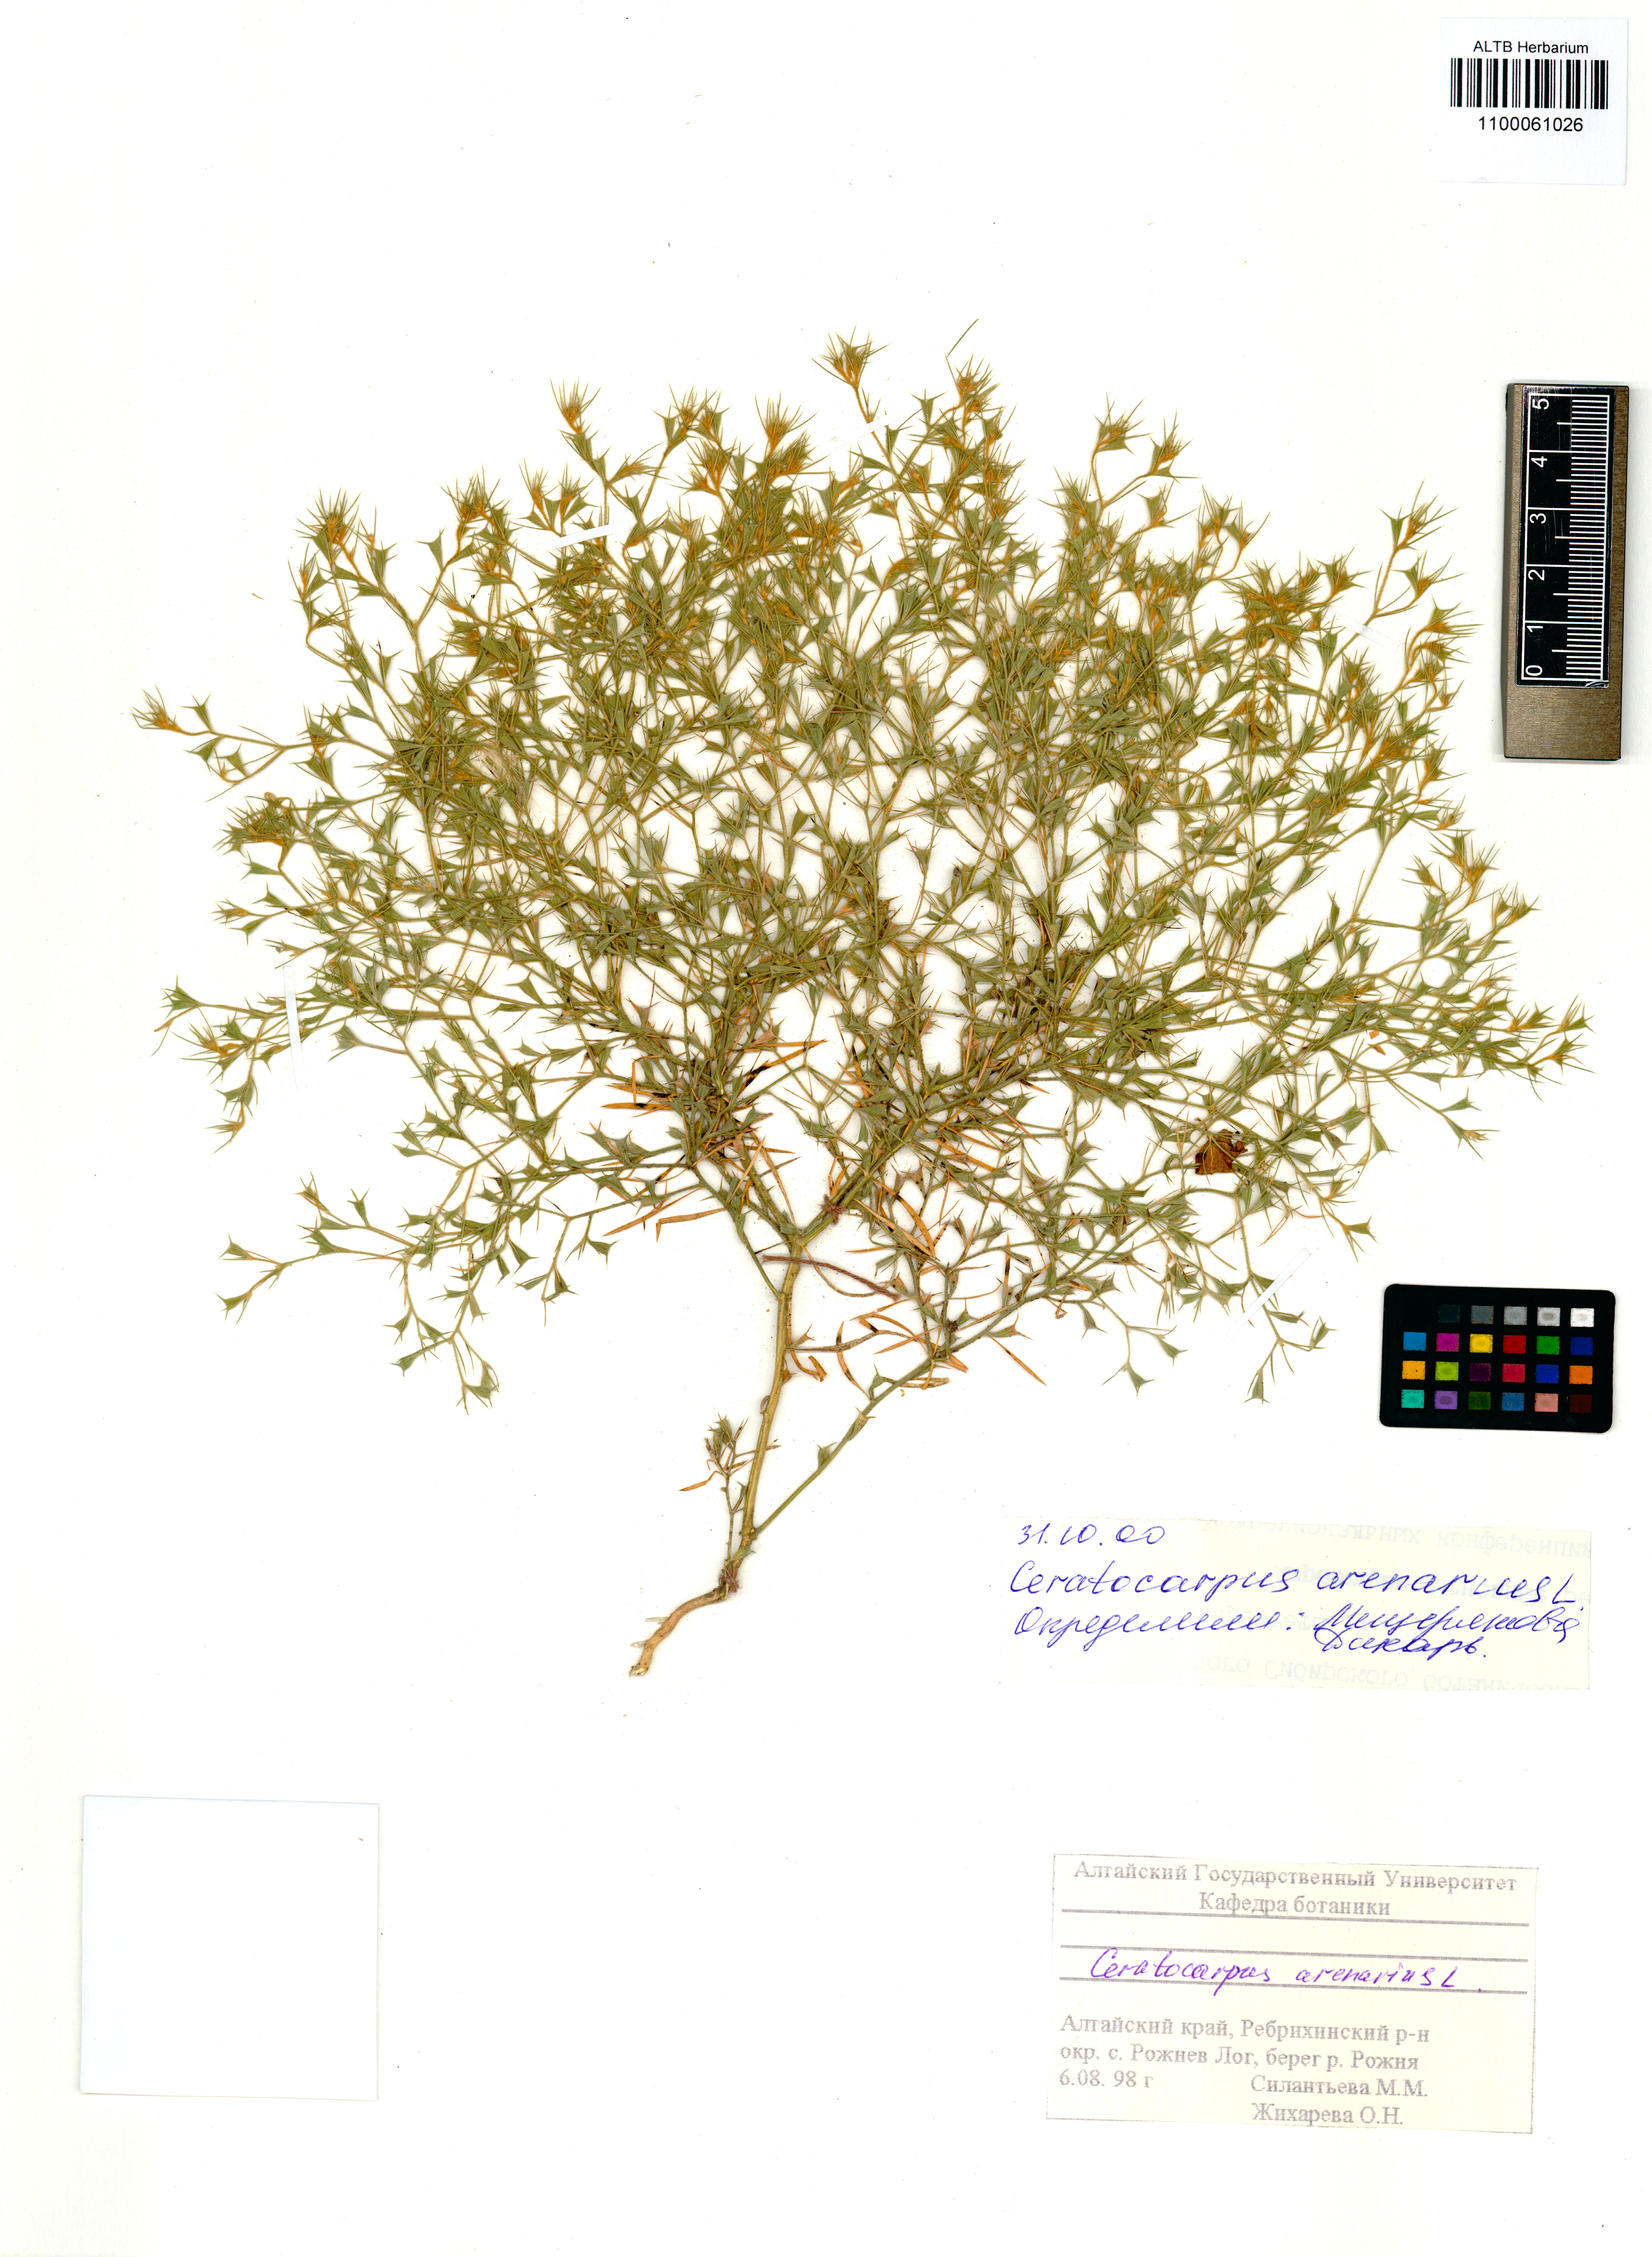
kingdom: Plantae
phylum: Tracheophyta
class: Magnoliopsida
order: Caryophyllales
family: Amaranthaceae
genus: Ceratocarpus
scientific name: Ceratocarpus arenarius
